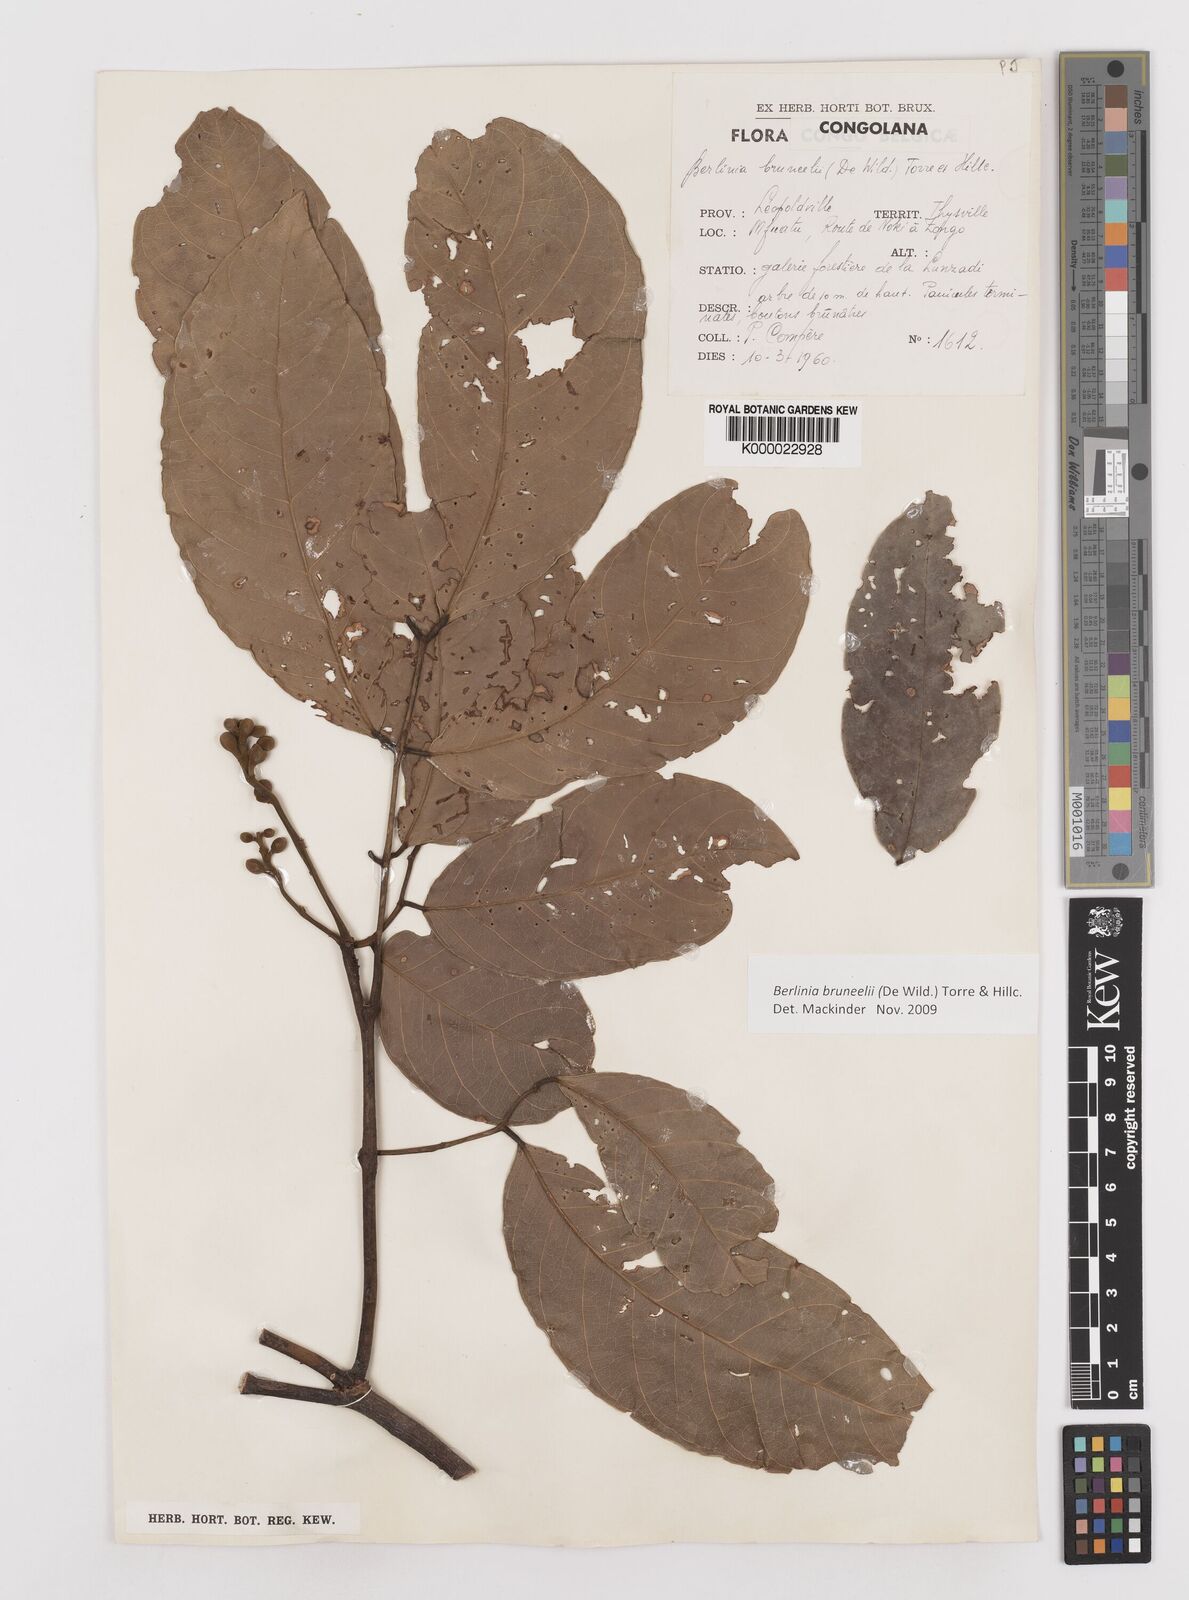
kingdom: Plantae
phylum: Tracheophyta
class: Magnoliopsida
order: Fabales
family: Fabaceae
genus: Berlinia
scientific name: Berlinia bruneelii
